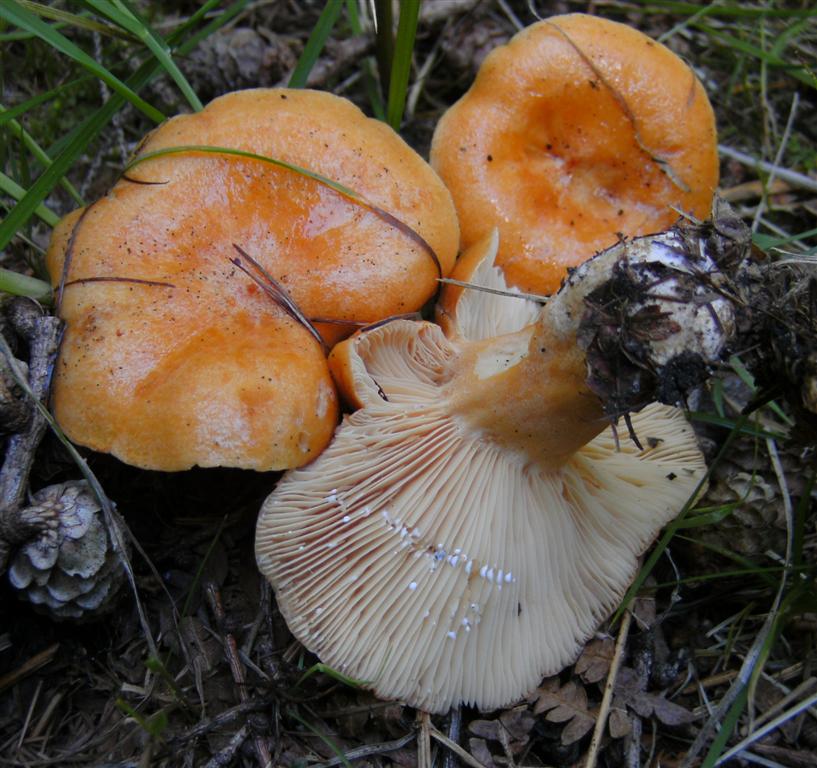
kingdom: Fungi
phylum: Basidiomycota
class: Agaricomycetes
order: Russulales
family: Russulaceae
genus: Lactarius
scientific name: Lactarius porninsis
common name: lærke-mælkehat
